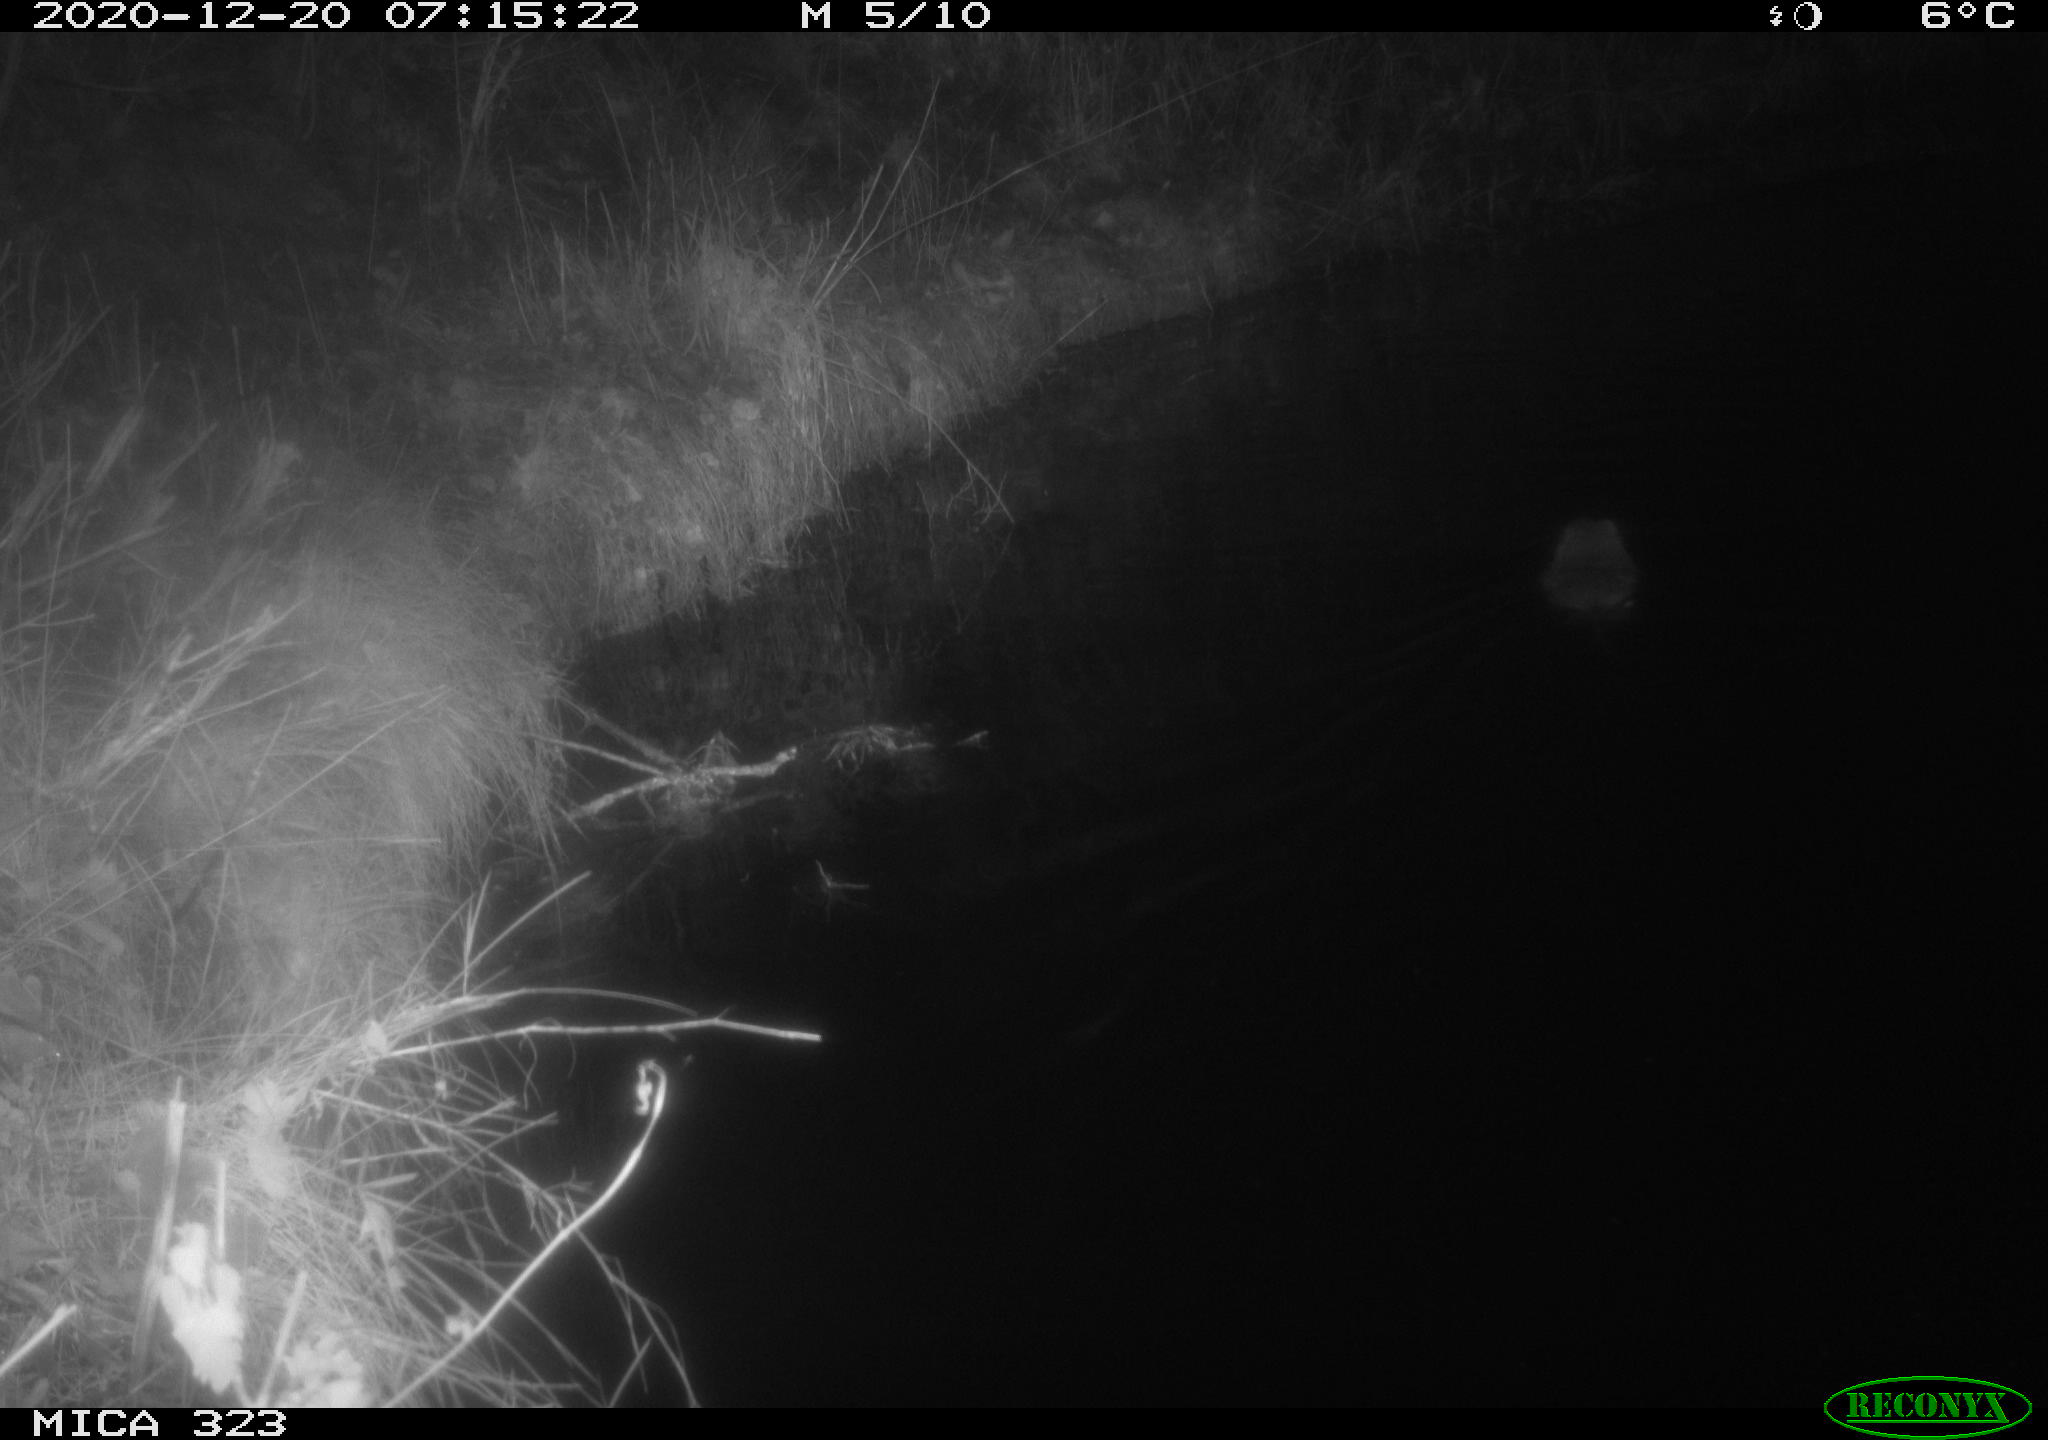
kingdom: Animalia
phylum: Chordata
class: Mammalia
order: Rodentia
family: Myocastoridae
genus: Myocastor
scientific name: Myocastor coypus
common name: Coypu
